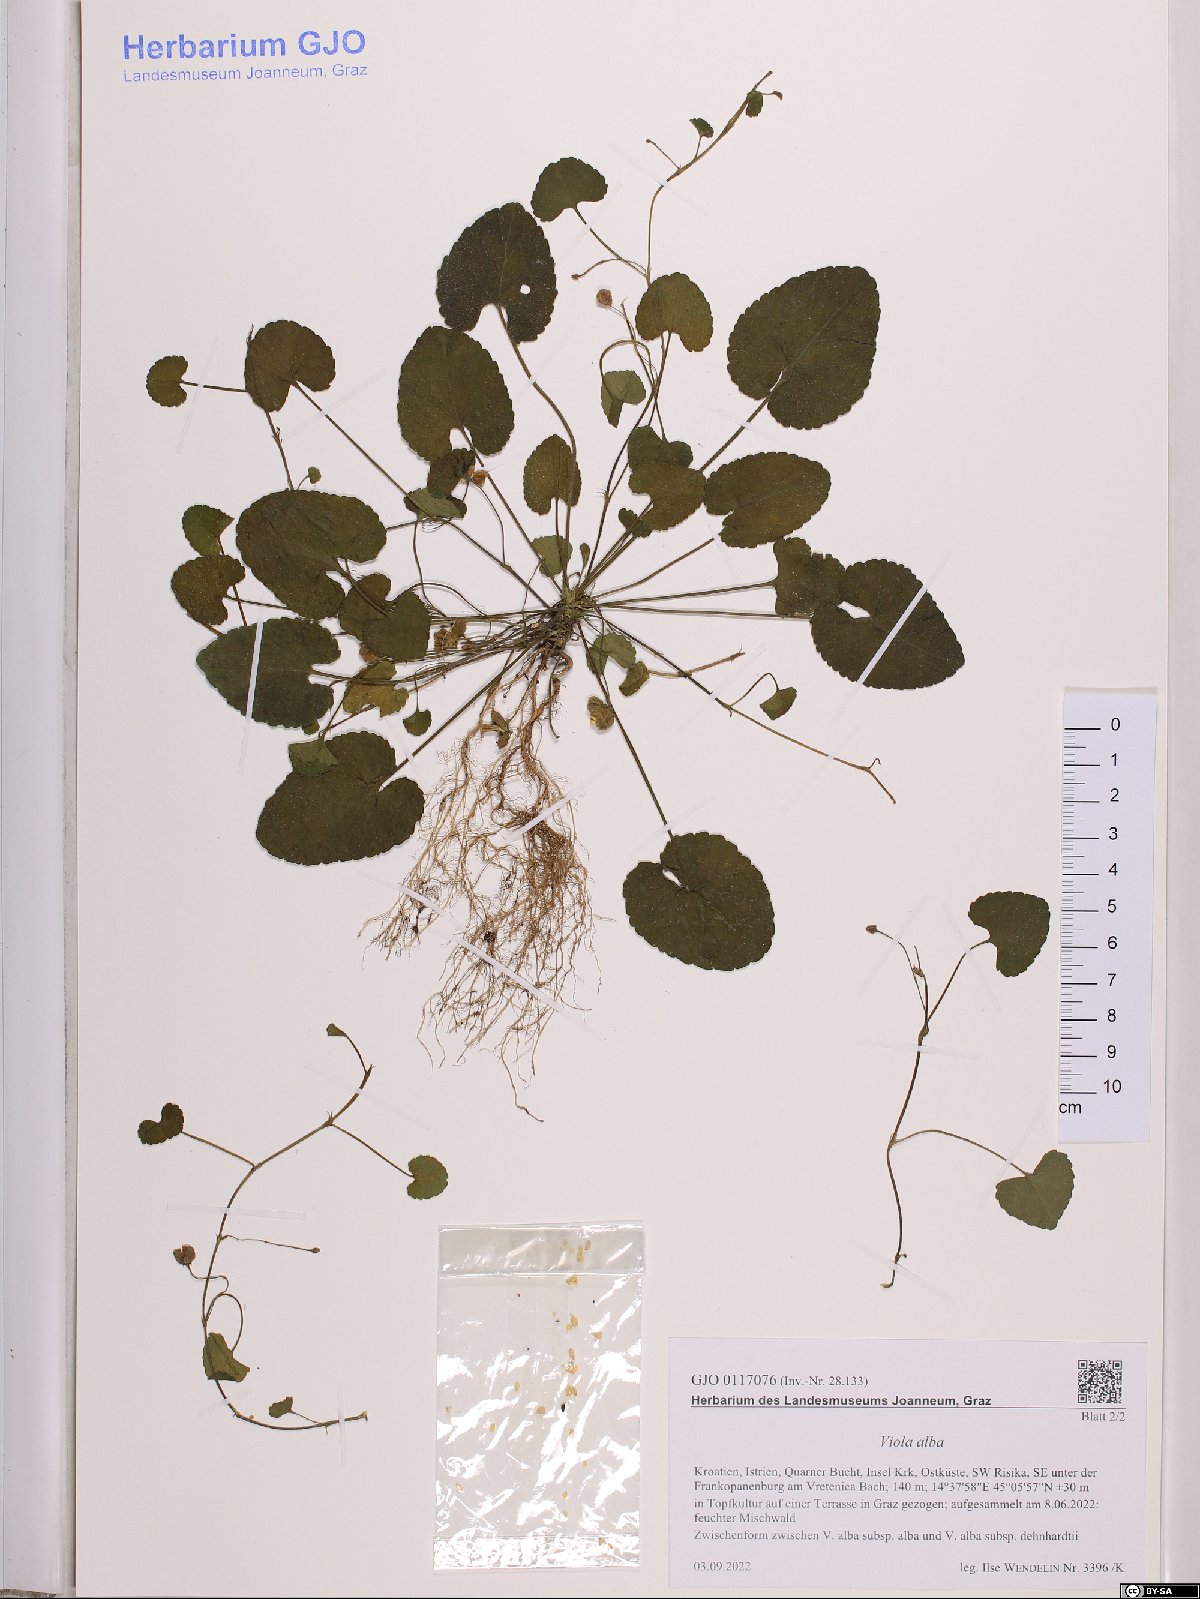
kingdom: Plantae
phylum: Tracheophyta
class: Magnoliopsida
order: Malpighiales
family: Violaceae
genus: Viola
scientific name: Viola alba
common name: White violet
